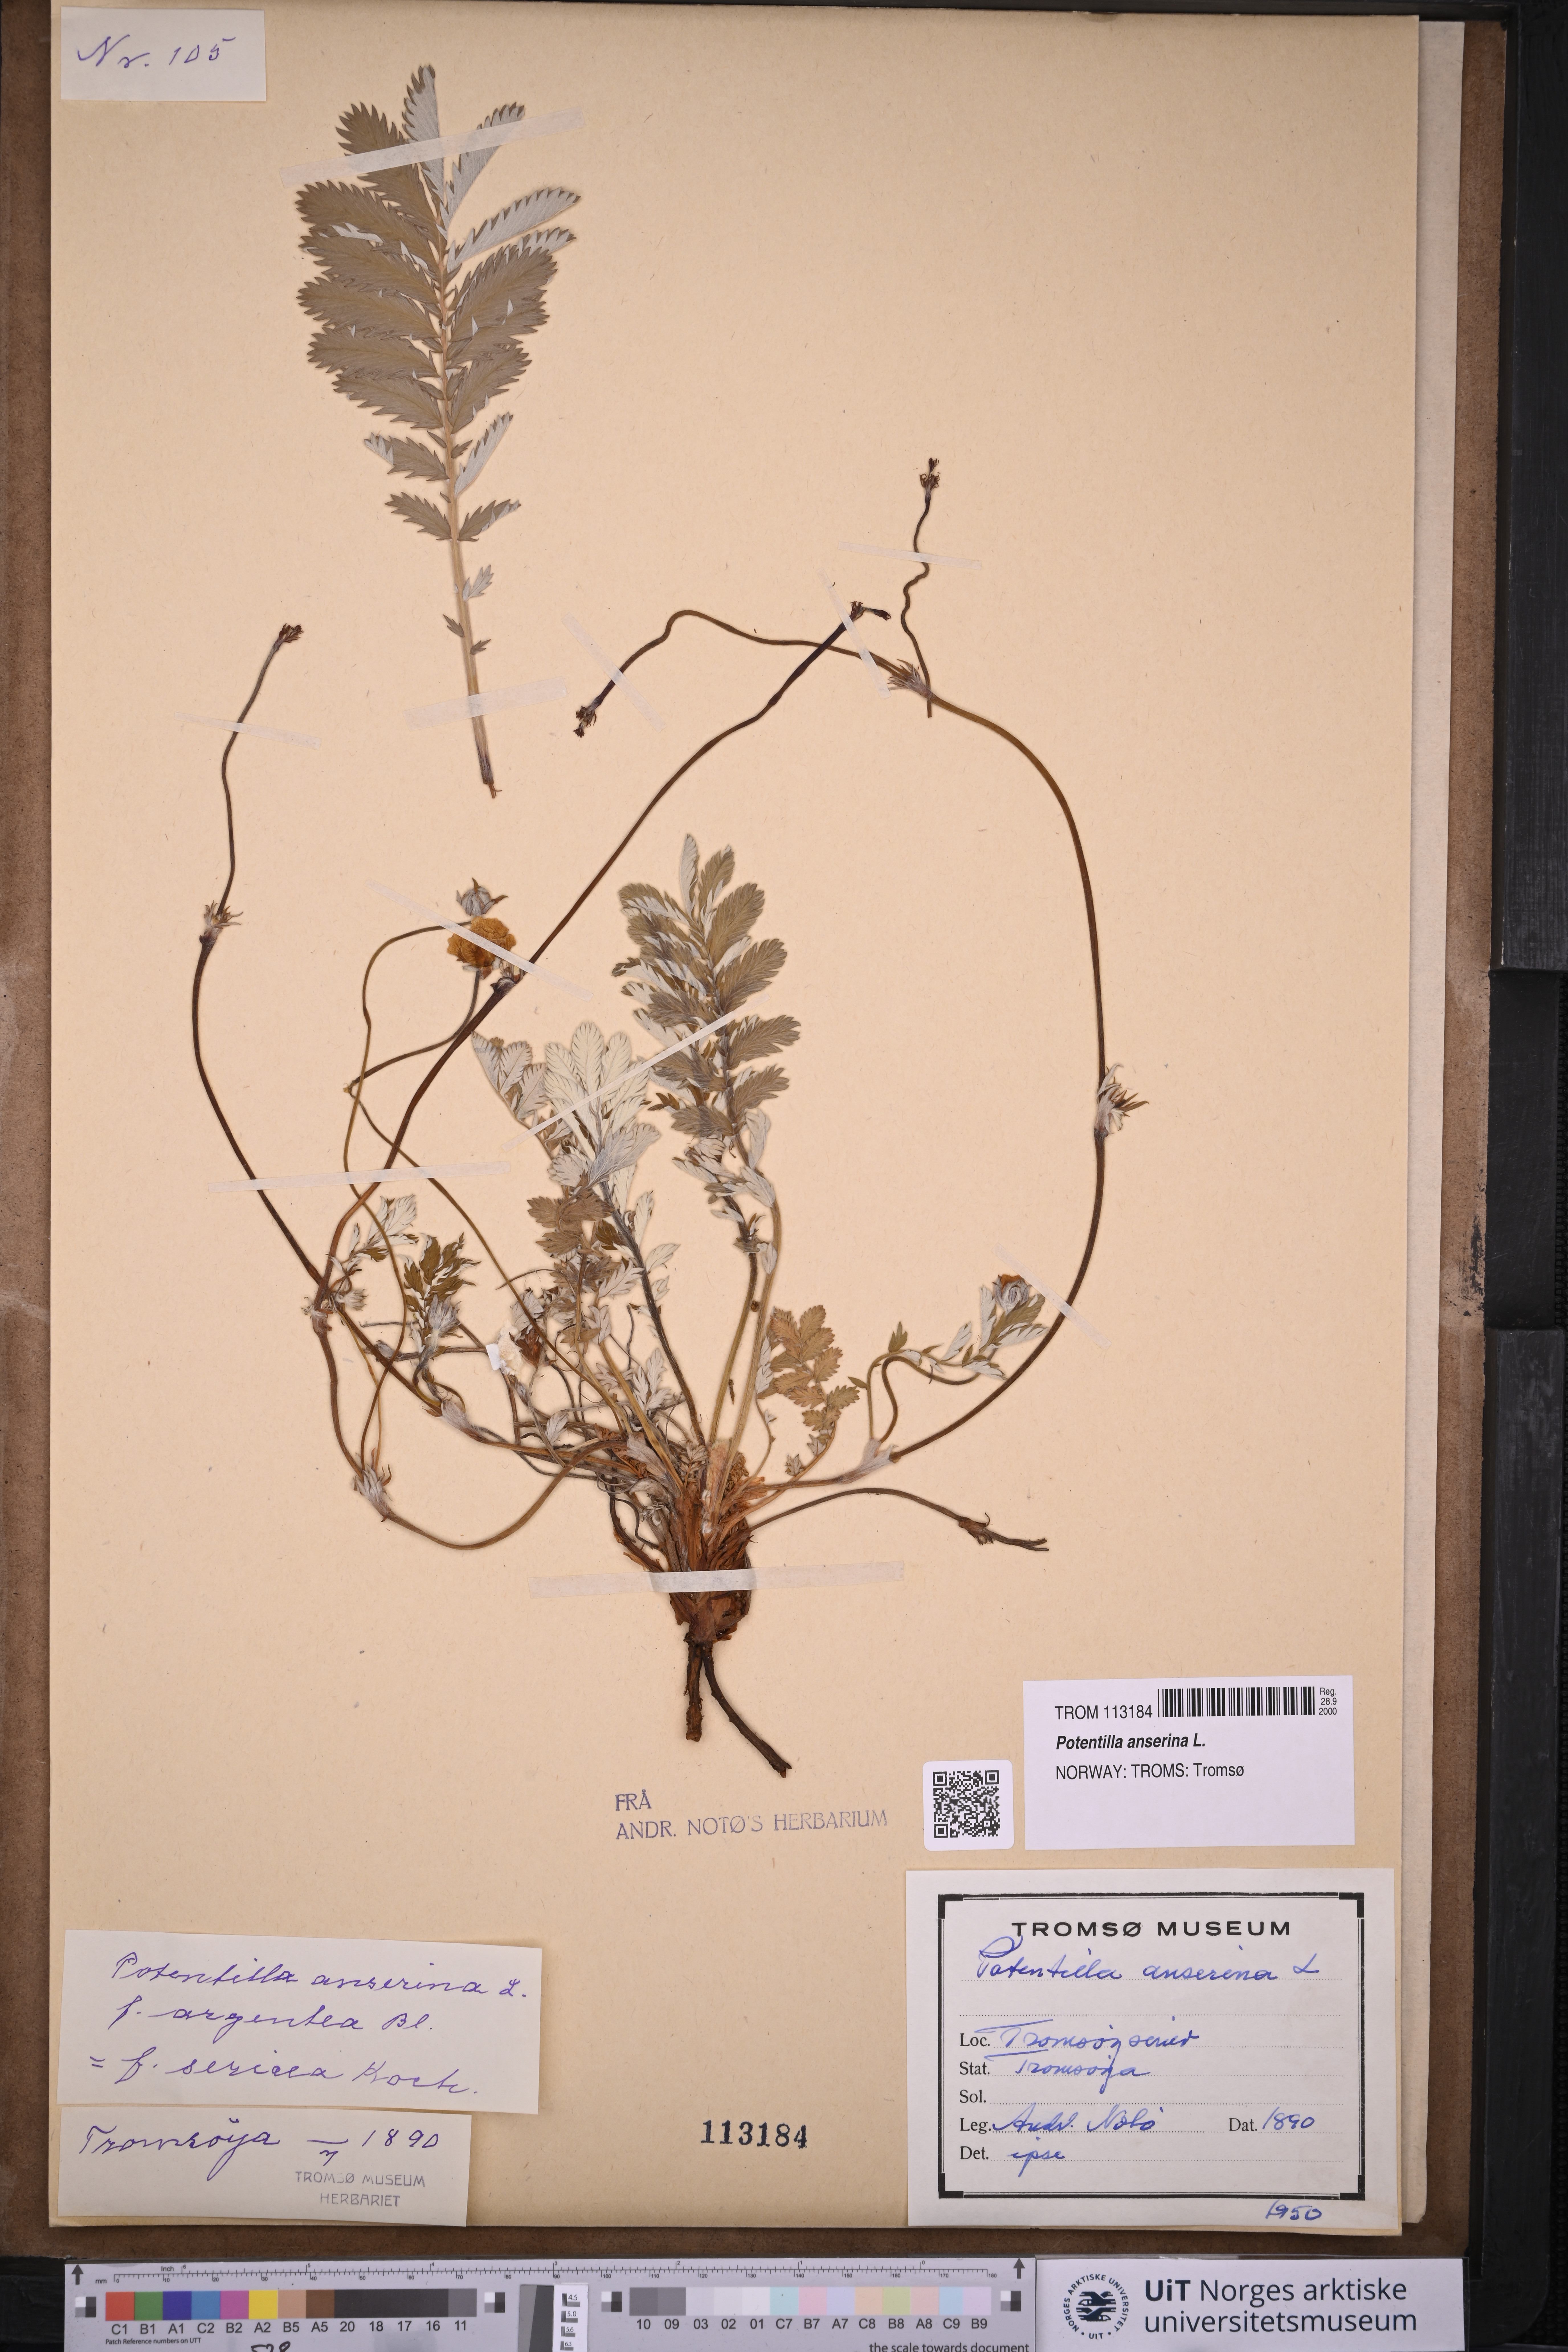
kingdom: Plantae
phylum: Tracheophyta
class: Magnoliopsida
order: Rosales
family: Rosaceae
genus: Argentina
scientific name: Argentina anserina
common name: Common silverweed
